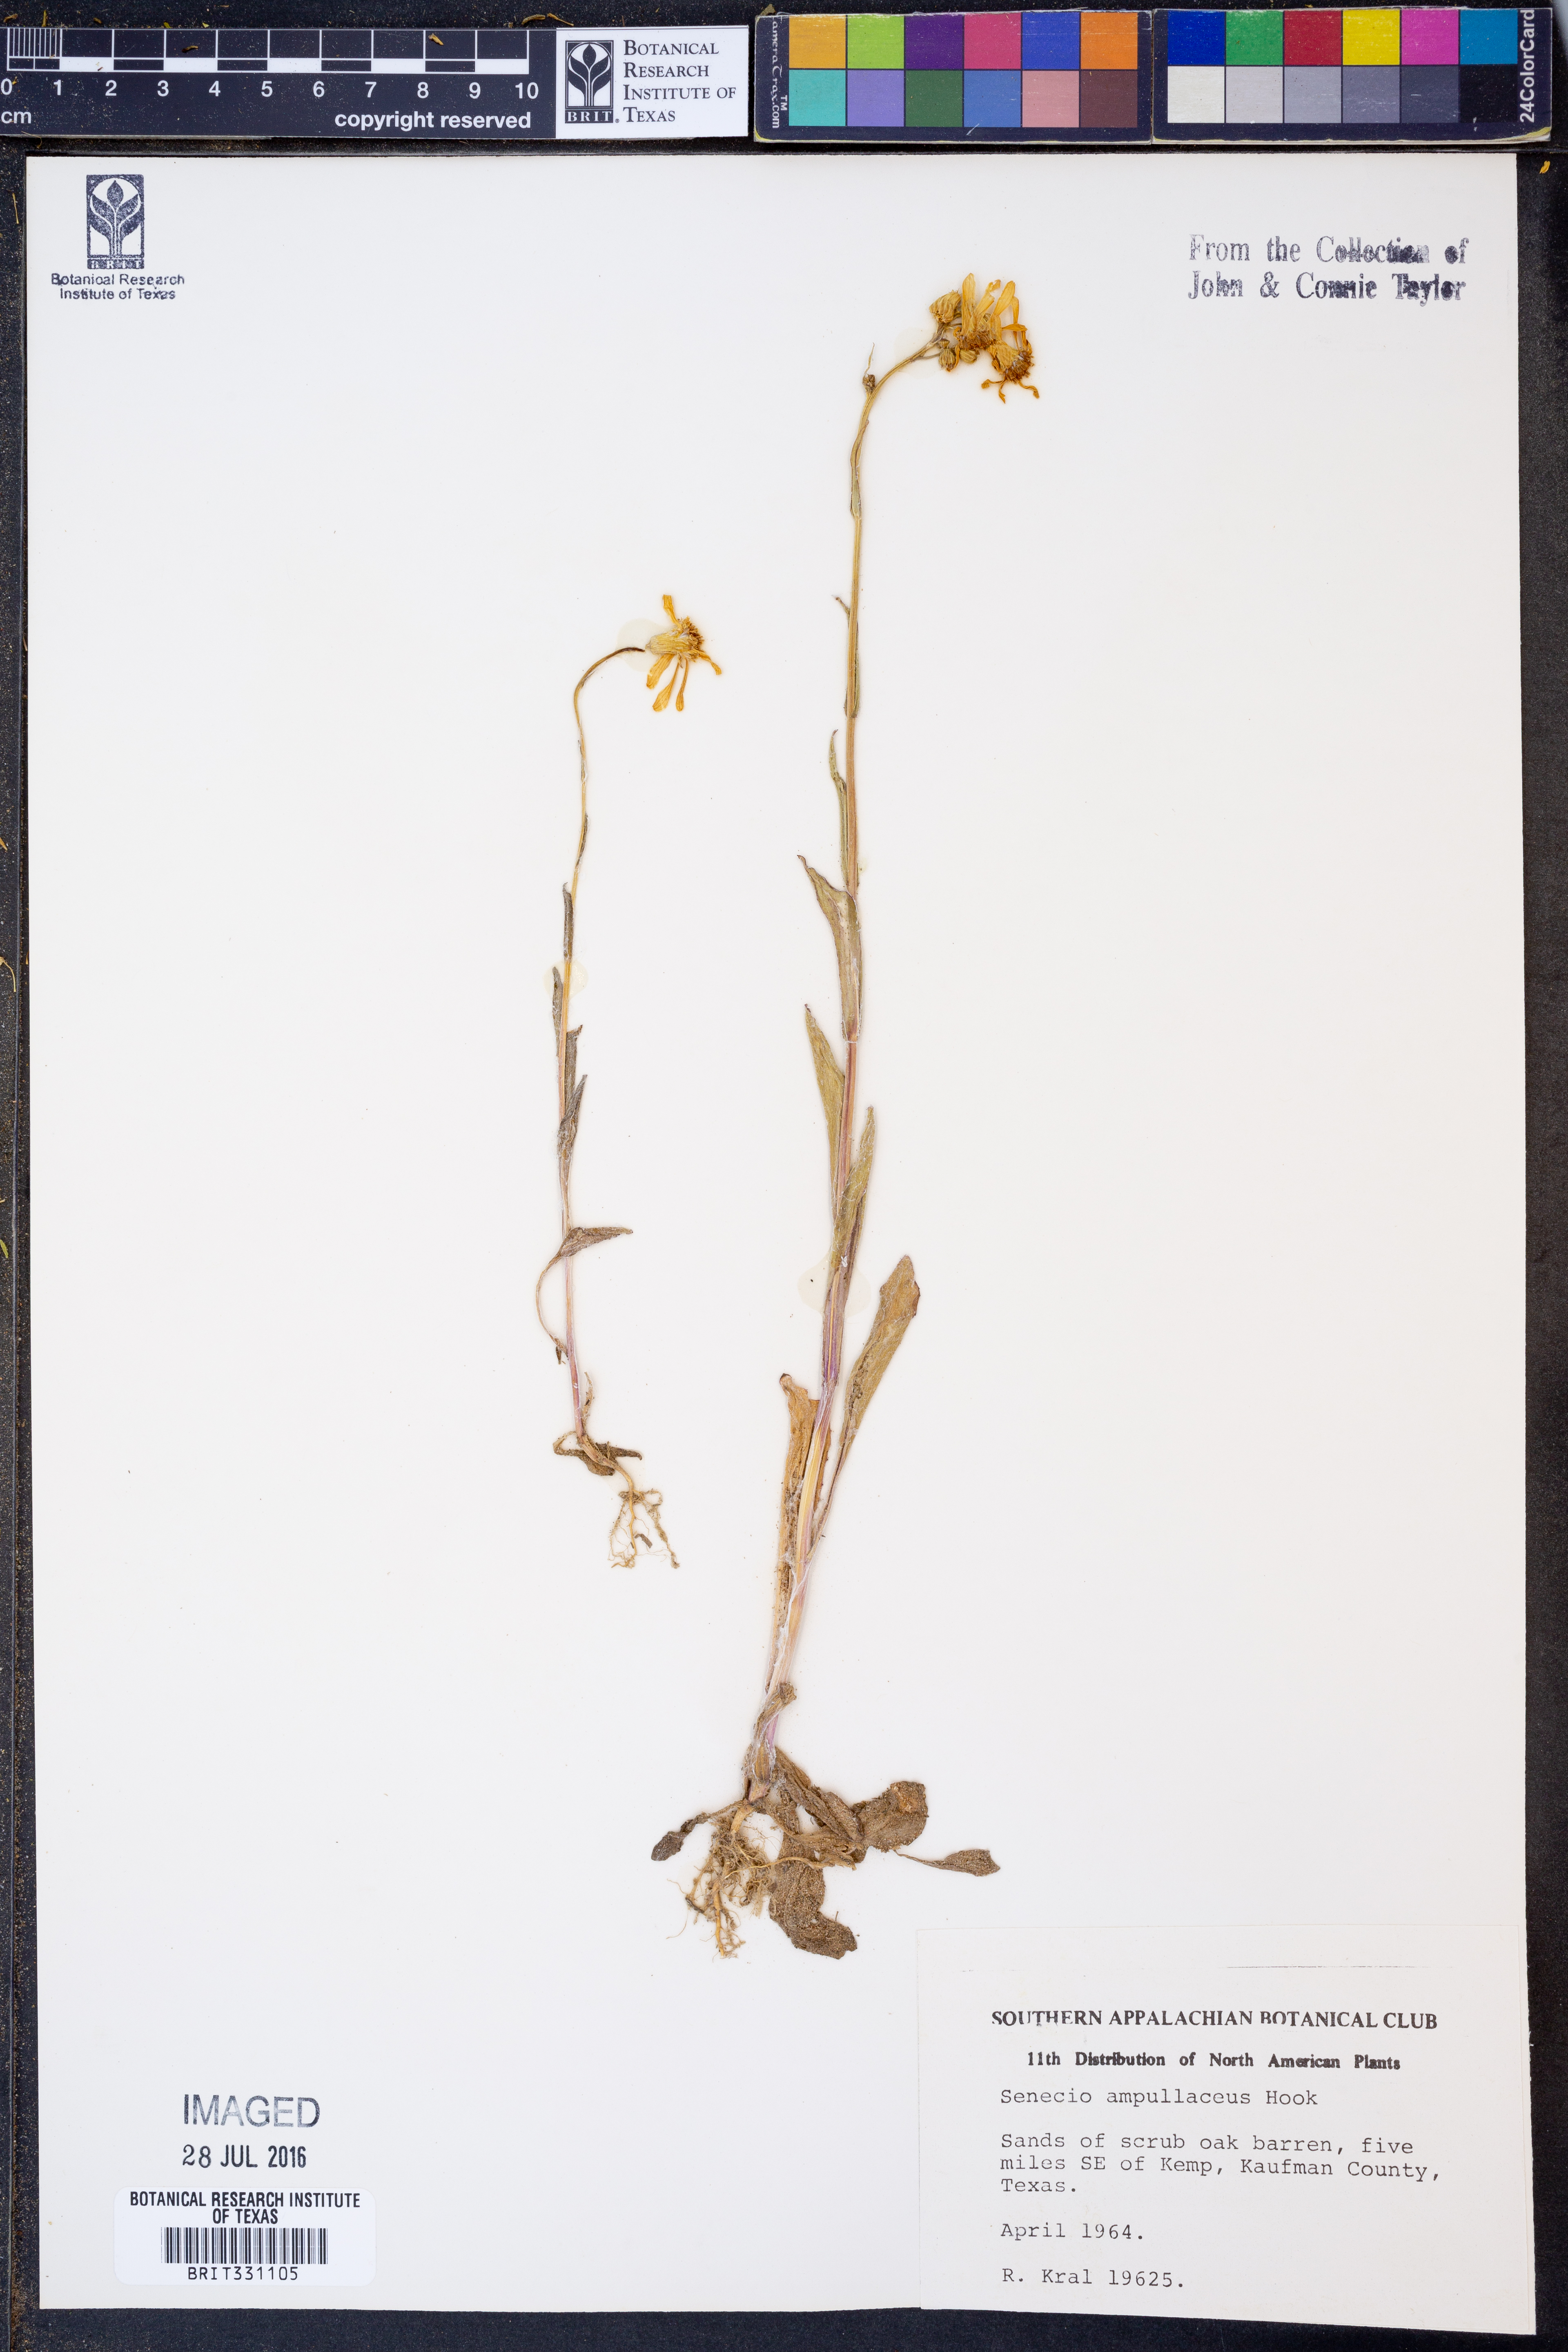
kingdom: Plantae
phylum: Tracheophyta
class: Magnoliopsida
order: Asterales
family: Asteraceae
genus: Senecio
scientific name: Senecio ampullaceus
